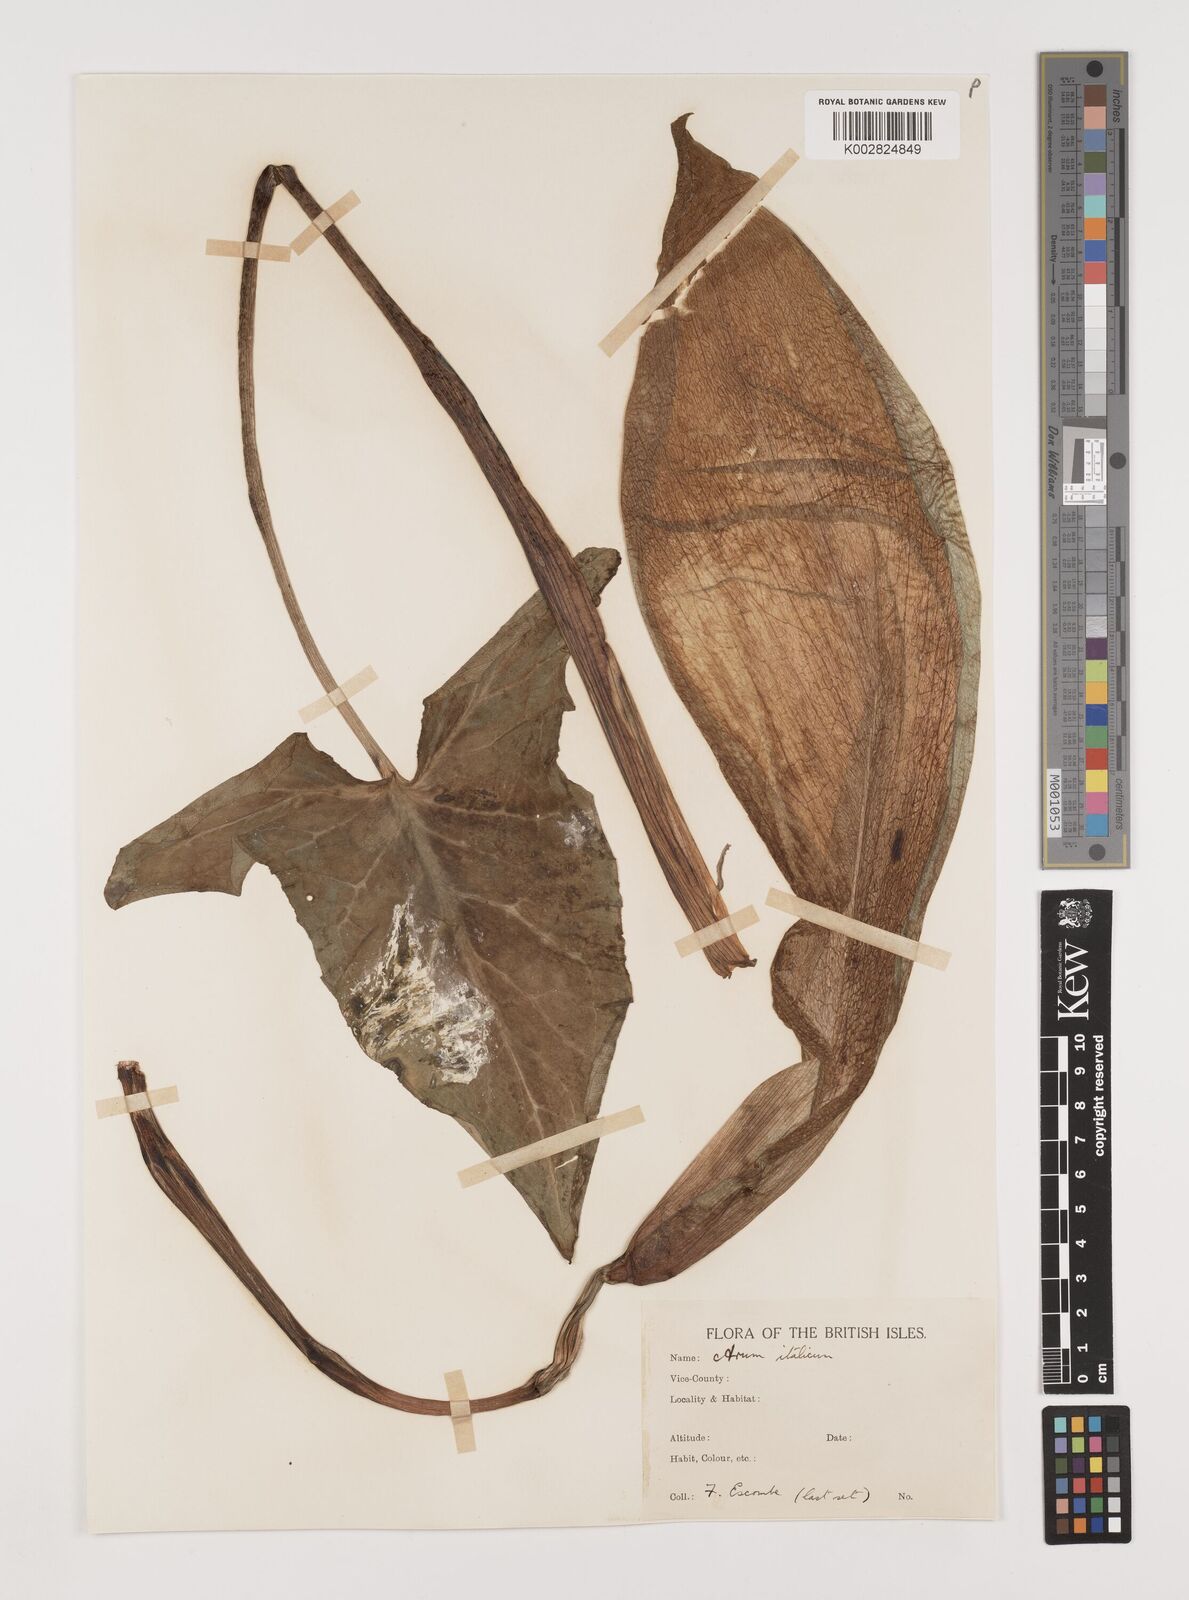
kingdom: Plantae
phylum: Tracheophyta
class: Liliopsida
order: Alismatales
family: Araceae
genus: Arum
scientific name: Arum italicum
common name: Italian lords-and-ladies
